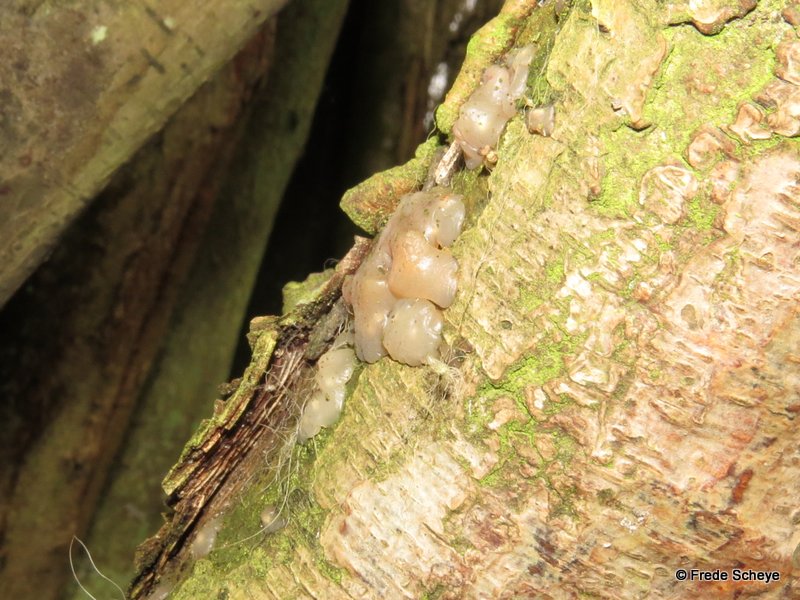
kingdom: Fungi
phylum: Basidiomycota
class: Agaricomycetes
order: Auriculariales
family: Hyaloriaceae
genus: Myxarium
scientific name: Myxarium nucleatum
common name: klar bævretop
